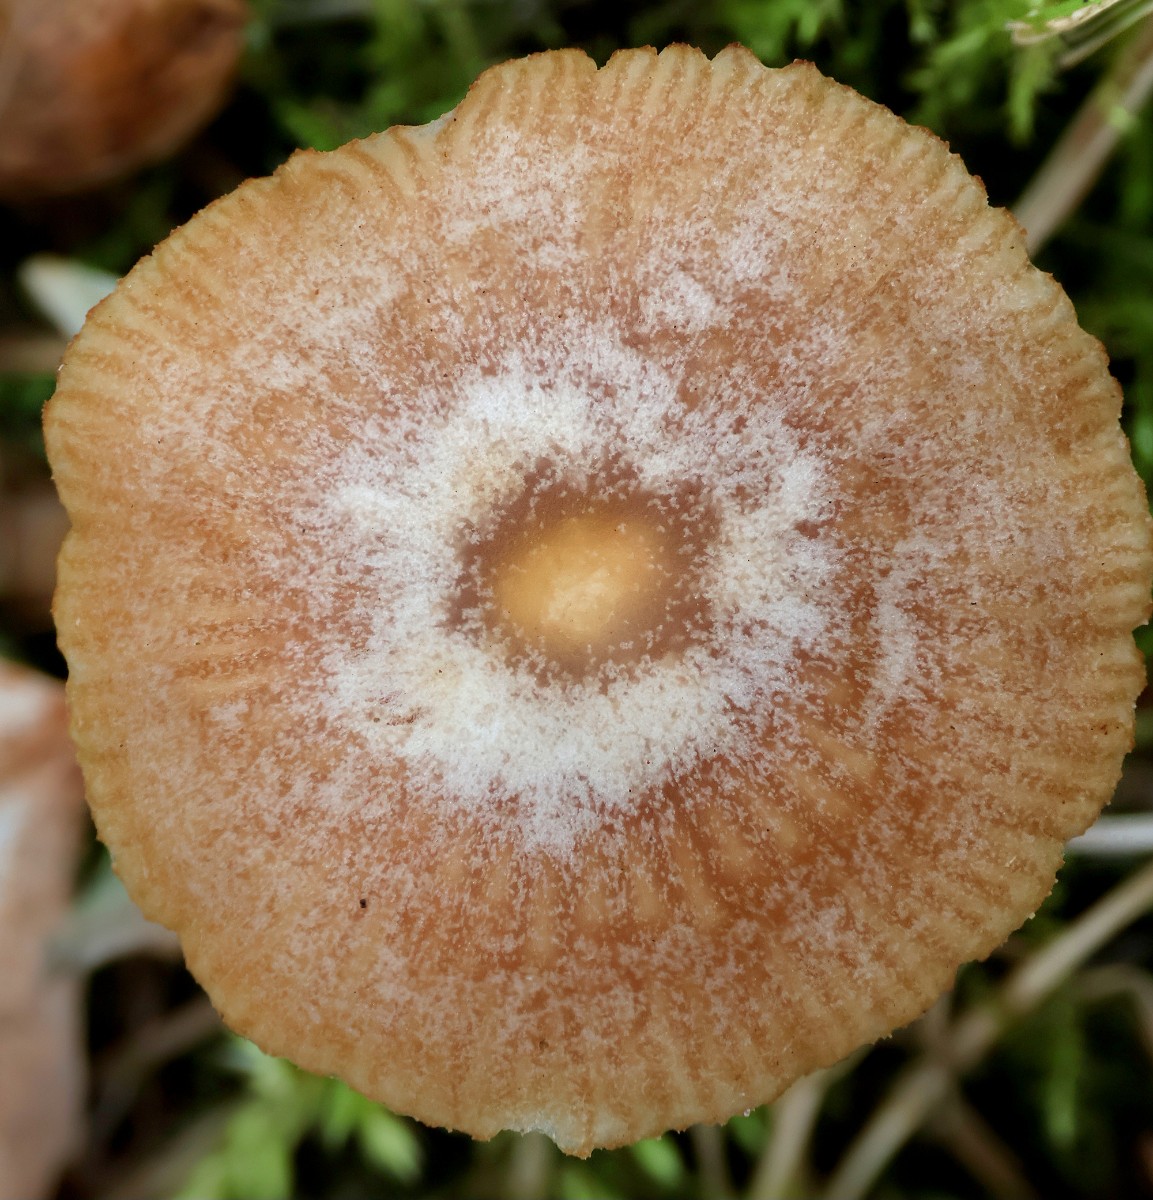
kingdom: Fungi
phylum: Basidiomycota
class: Agaricomycetes
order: Agaricales
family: Tubariaceae
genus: Tubaria
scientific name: Tubaria furfuracea
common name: kliddet fnughat
